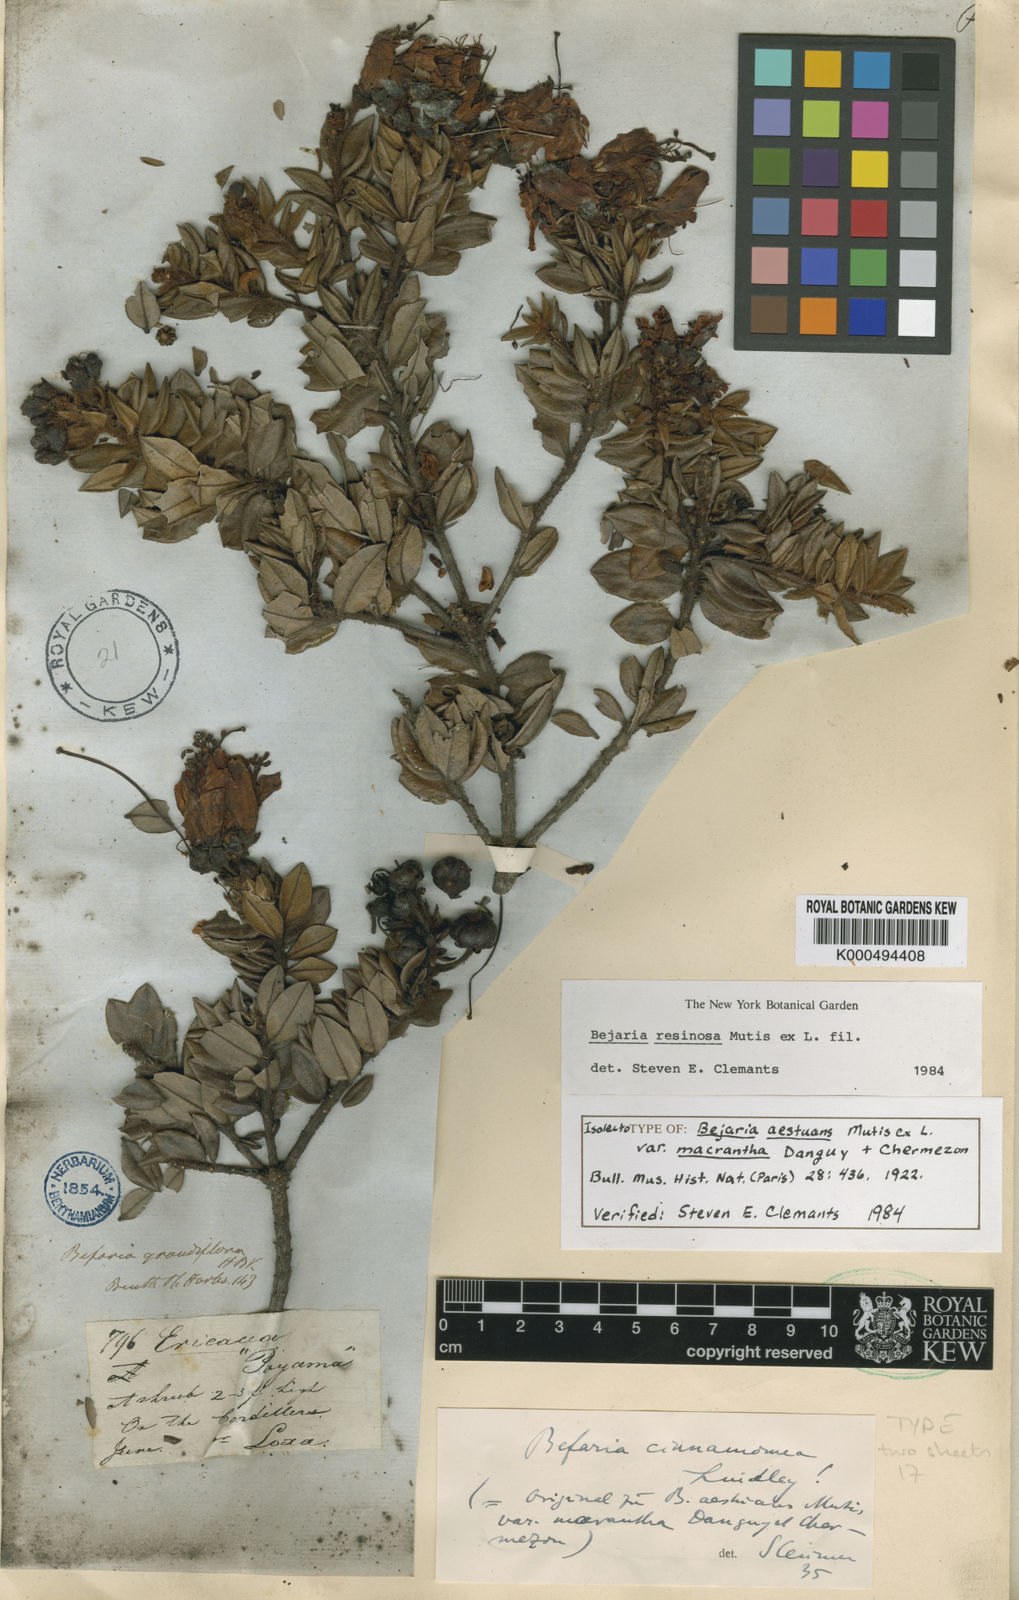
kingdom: Plantae
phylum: Tracheophyta
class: Magnoliopsida
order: Ericales
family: Ericaceae
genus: Bejaria
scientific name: Bejaria resinosa
